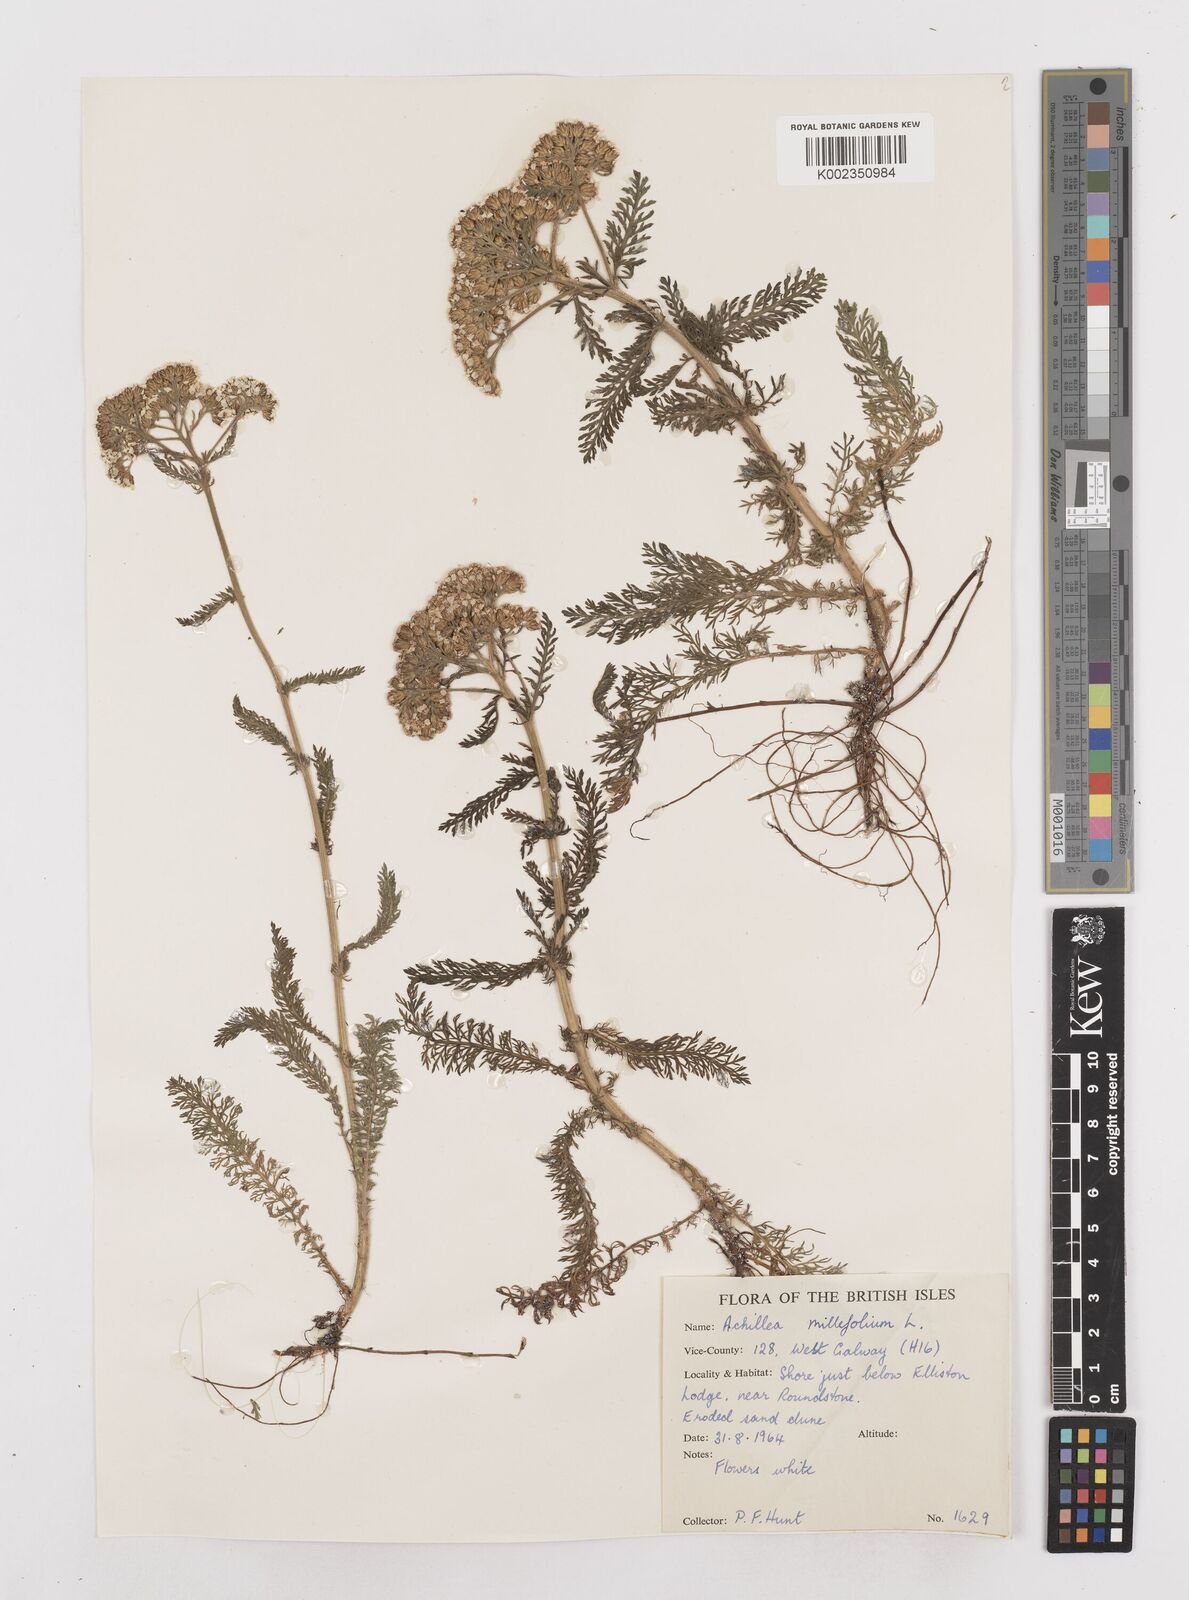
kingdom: Plantae
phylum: Tracheophyta
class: Magnoliopsida
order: Asterales
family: Asteraceae
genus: Achillea
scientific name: Achillea millefolium
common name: Yarrow
